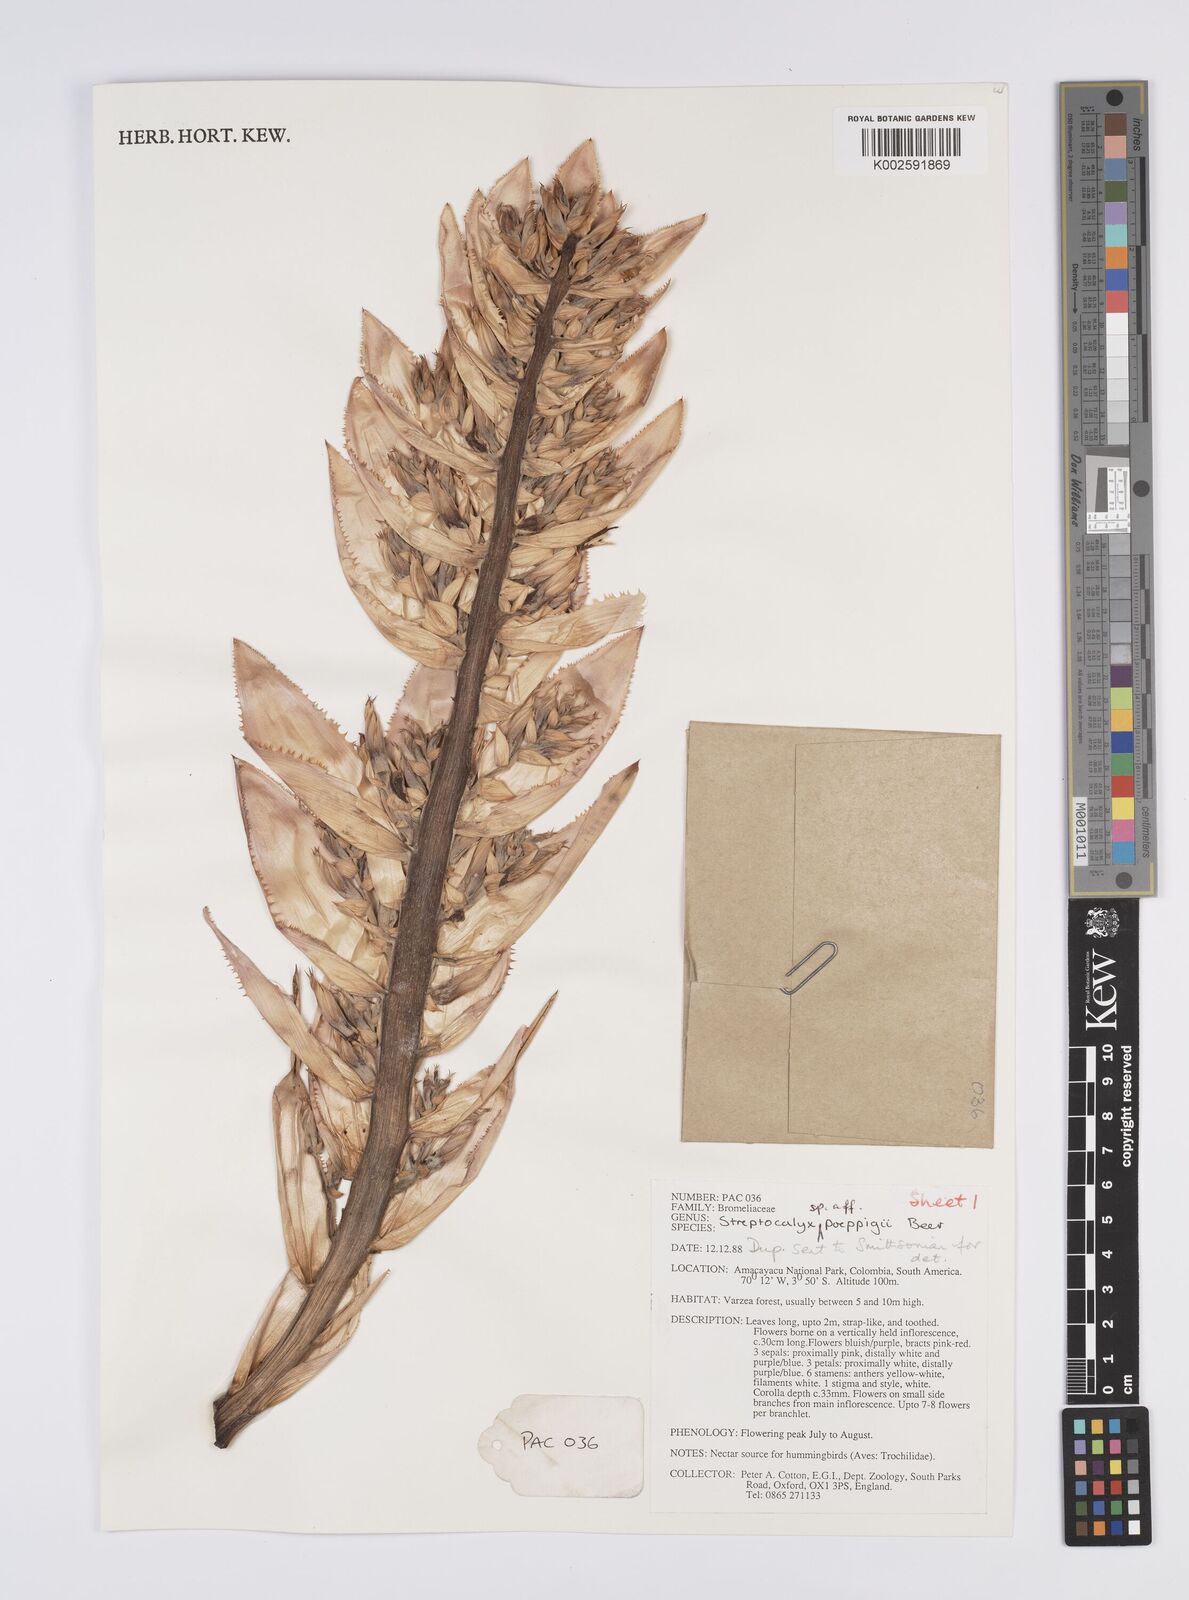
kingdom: Plantae
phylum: Tracheophyta
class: Liliopsida
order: Poales
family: Bromeliaceae
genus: Aechmea
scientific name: Aechmea
